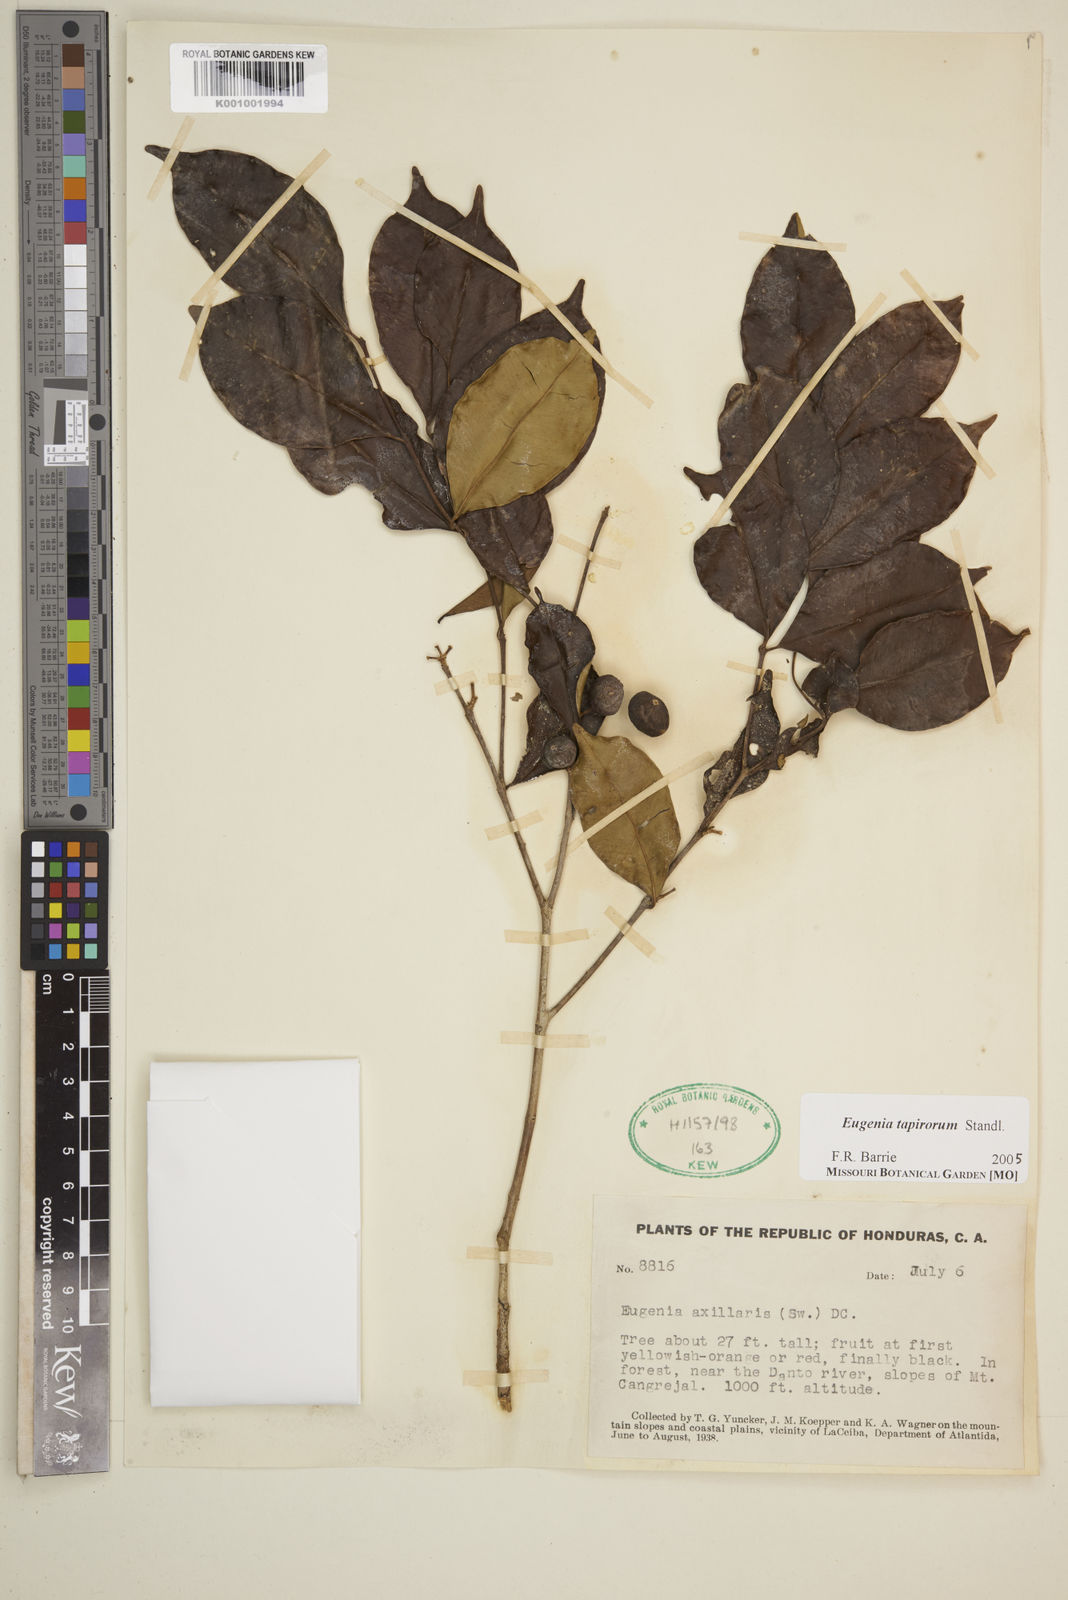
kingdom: Plantae
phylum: Tracheophyta
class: Magnoliopsida
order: Myrtales
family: Myrtaceae
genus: Eugenia
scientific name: Eugenia tapirorum
